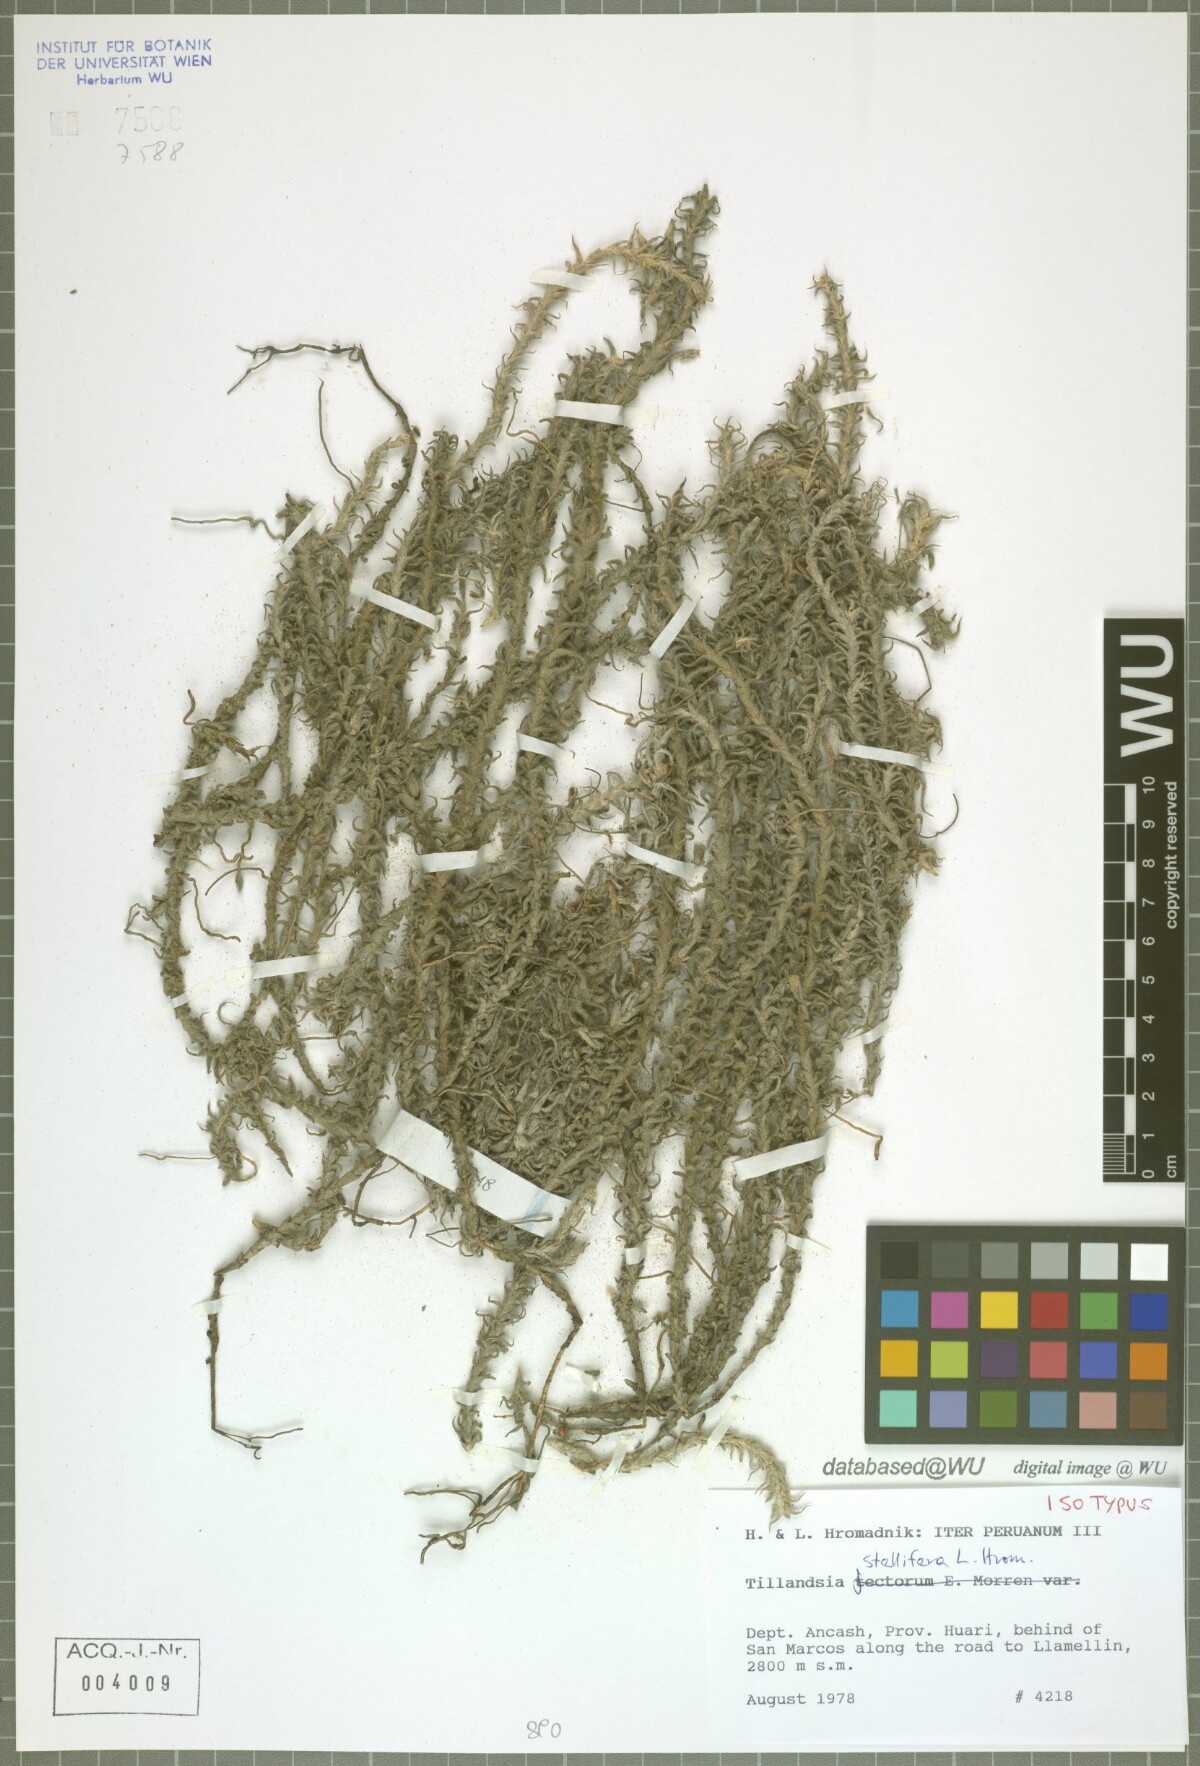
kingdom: Plantae
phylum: Tracheophyta
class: Liliopsida
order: Poales
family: Bromeliaceae
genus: Tillandsia
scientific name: Tillandsia stellifera
